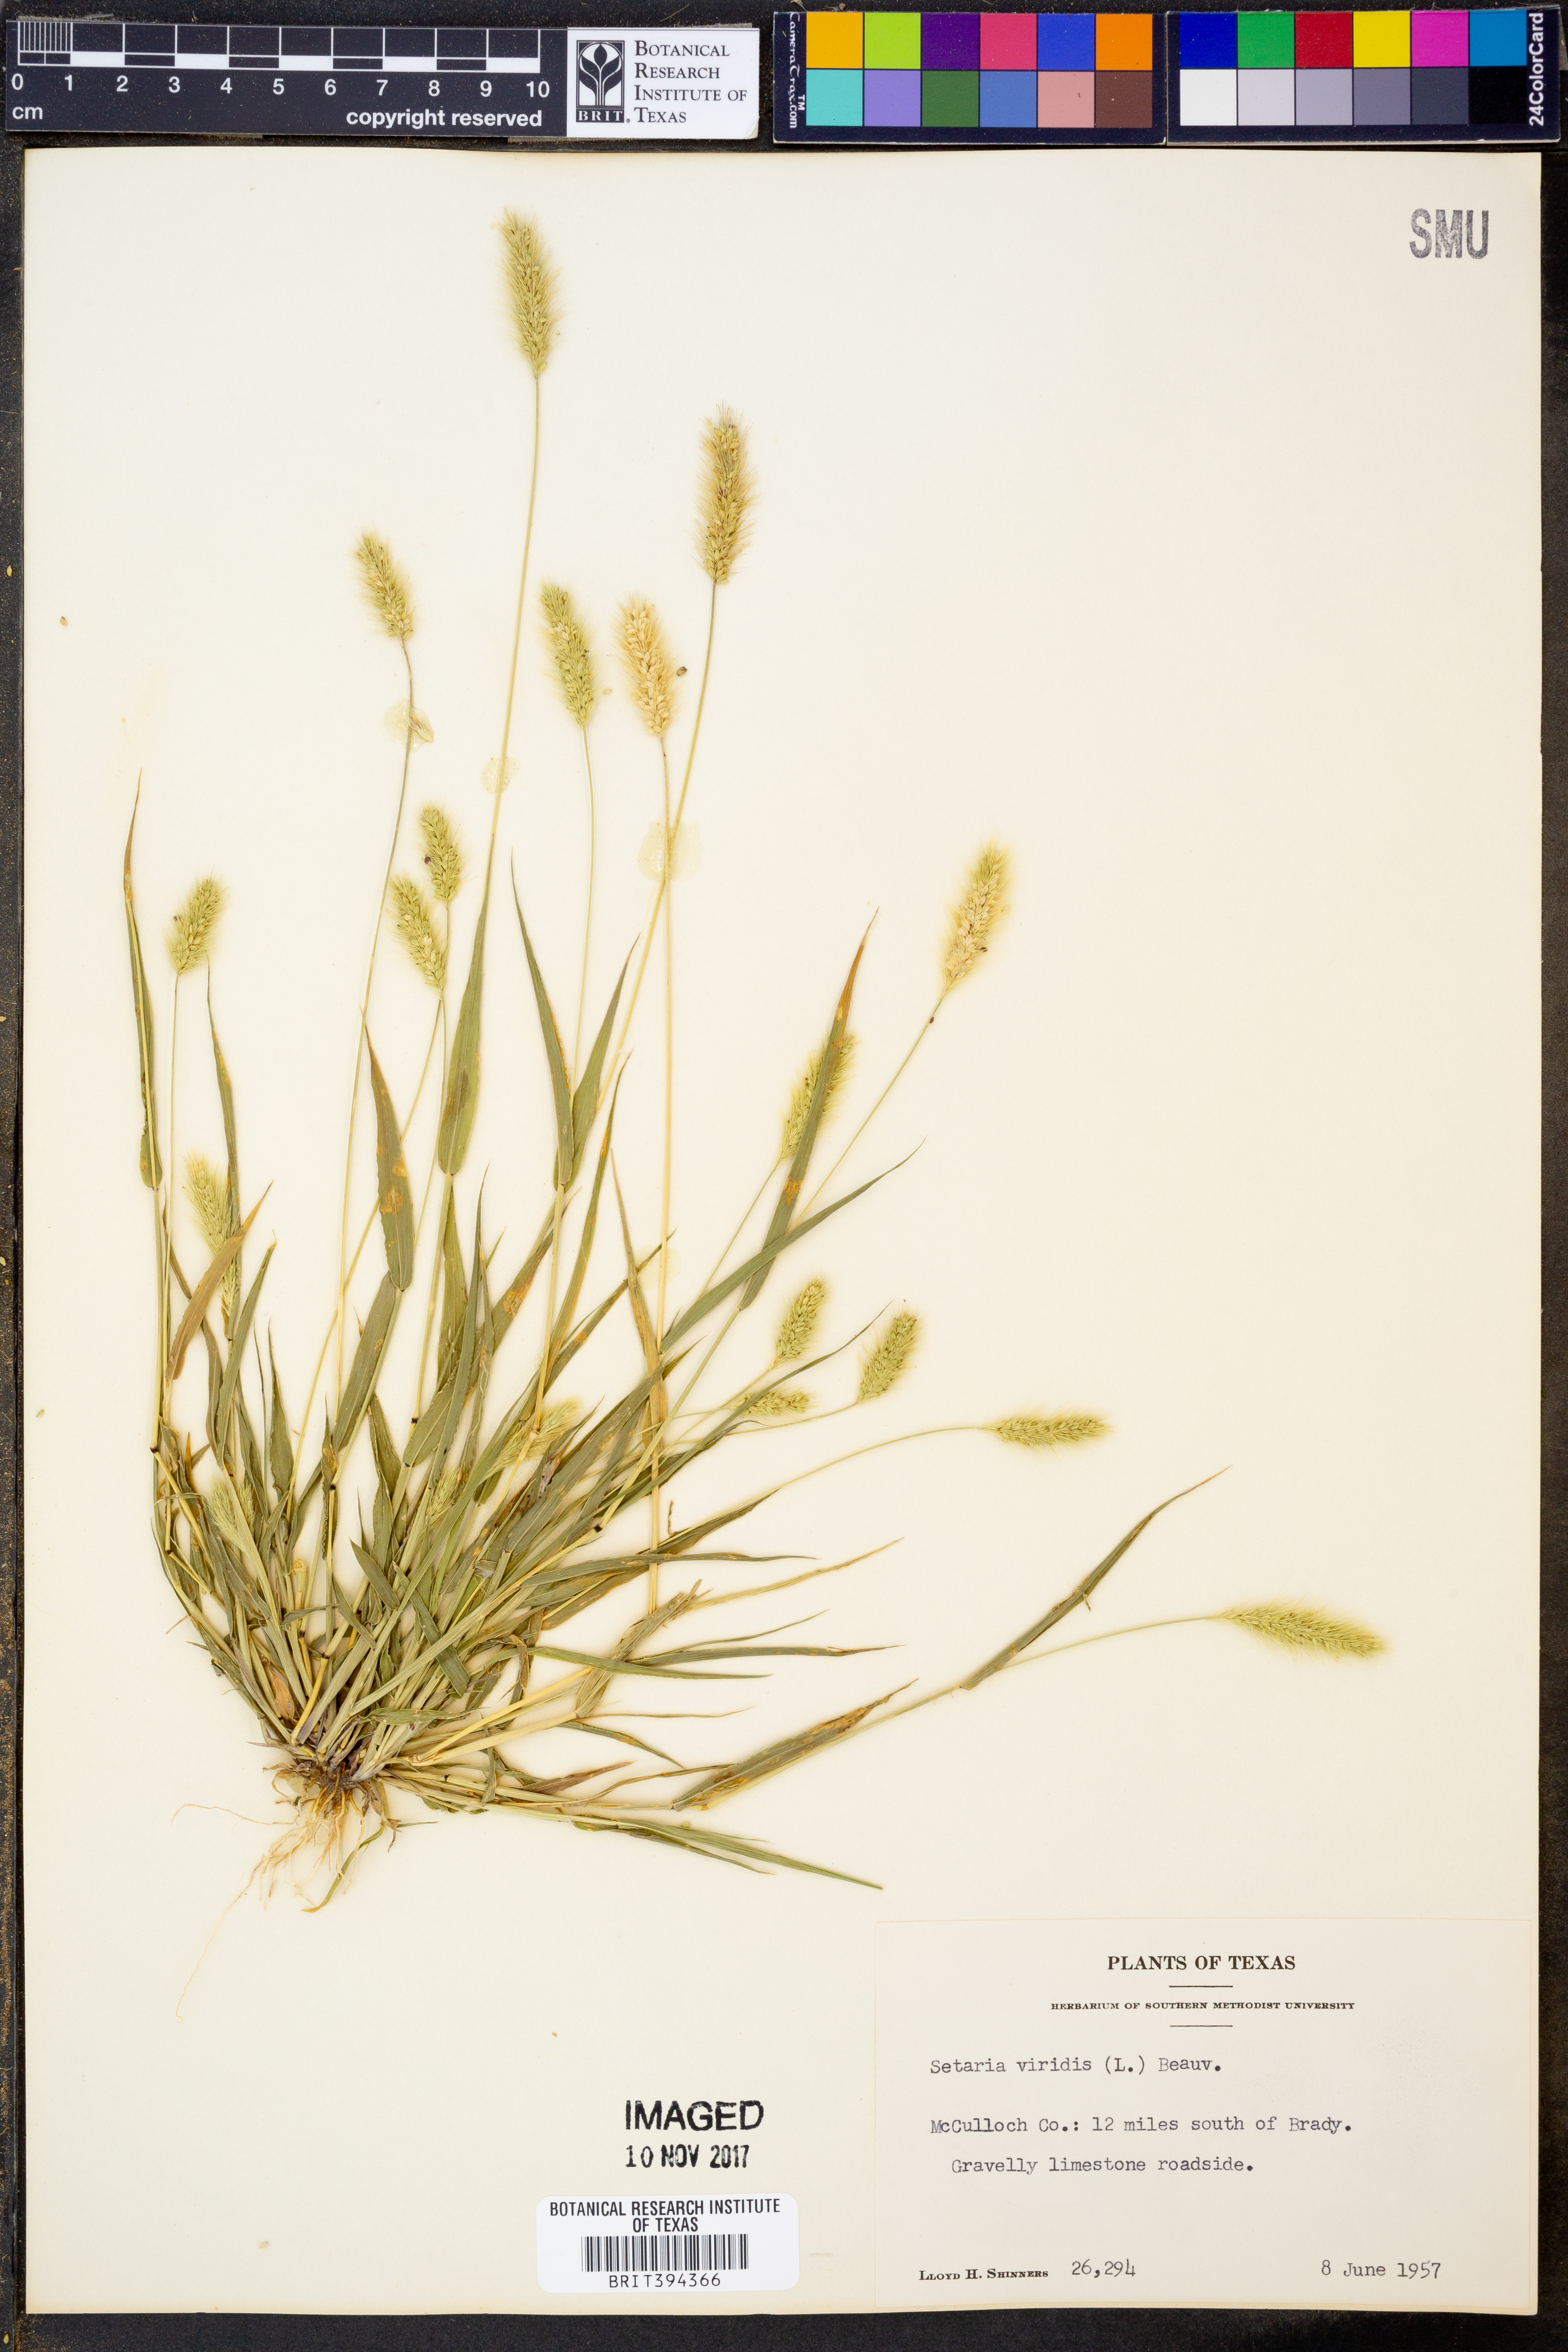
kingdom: Plantae
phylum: Tracheophyta
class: Liliopsida
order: Poales
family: Poaceae
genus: Setaria
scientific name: Setaria viridis
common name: Green bristlegrass
